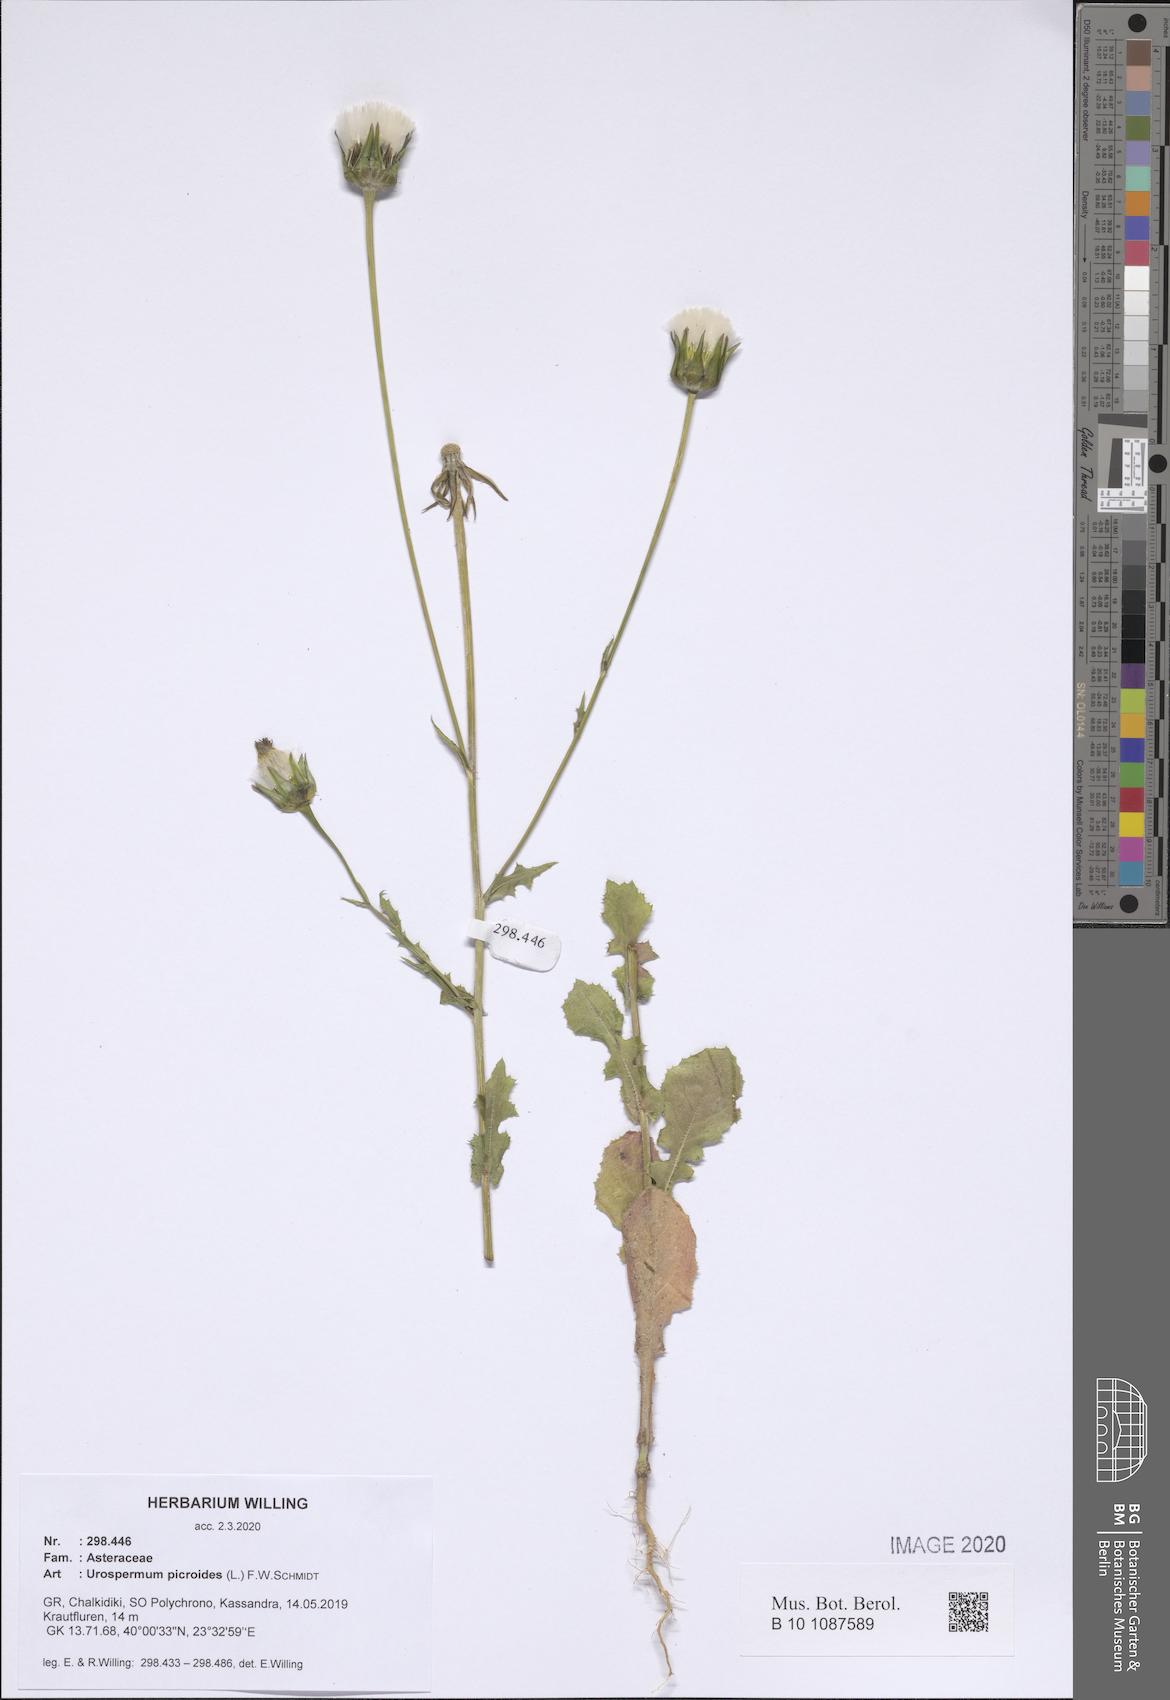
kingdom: Plantae
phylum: Tracheophyta
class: Magnoliopsida
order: Asterales
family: Asteraceae
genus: Urospermum
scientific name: Urospermum picroides
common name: False hawkbit
